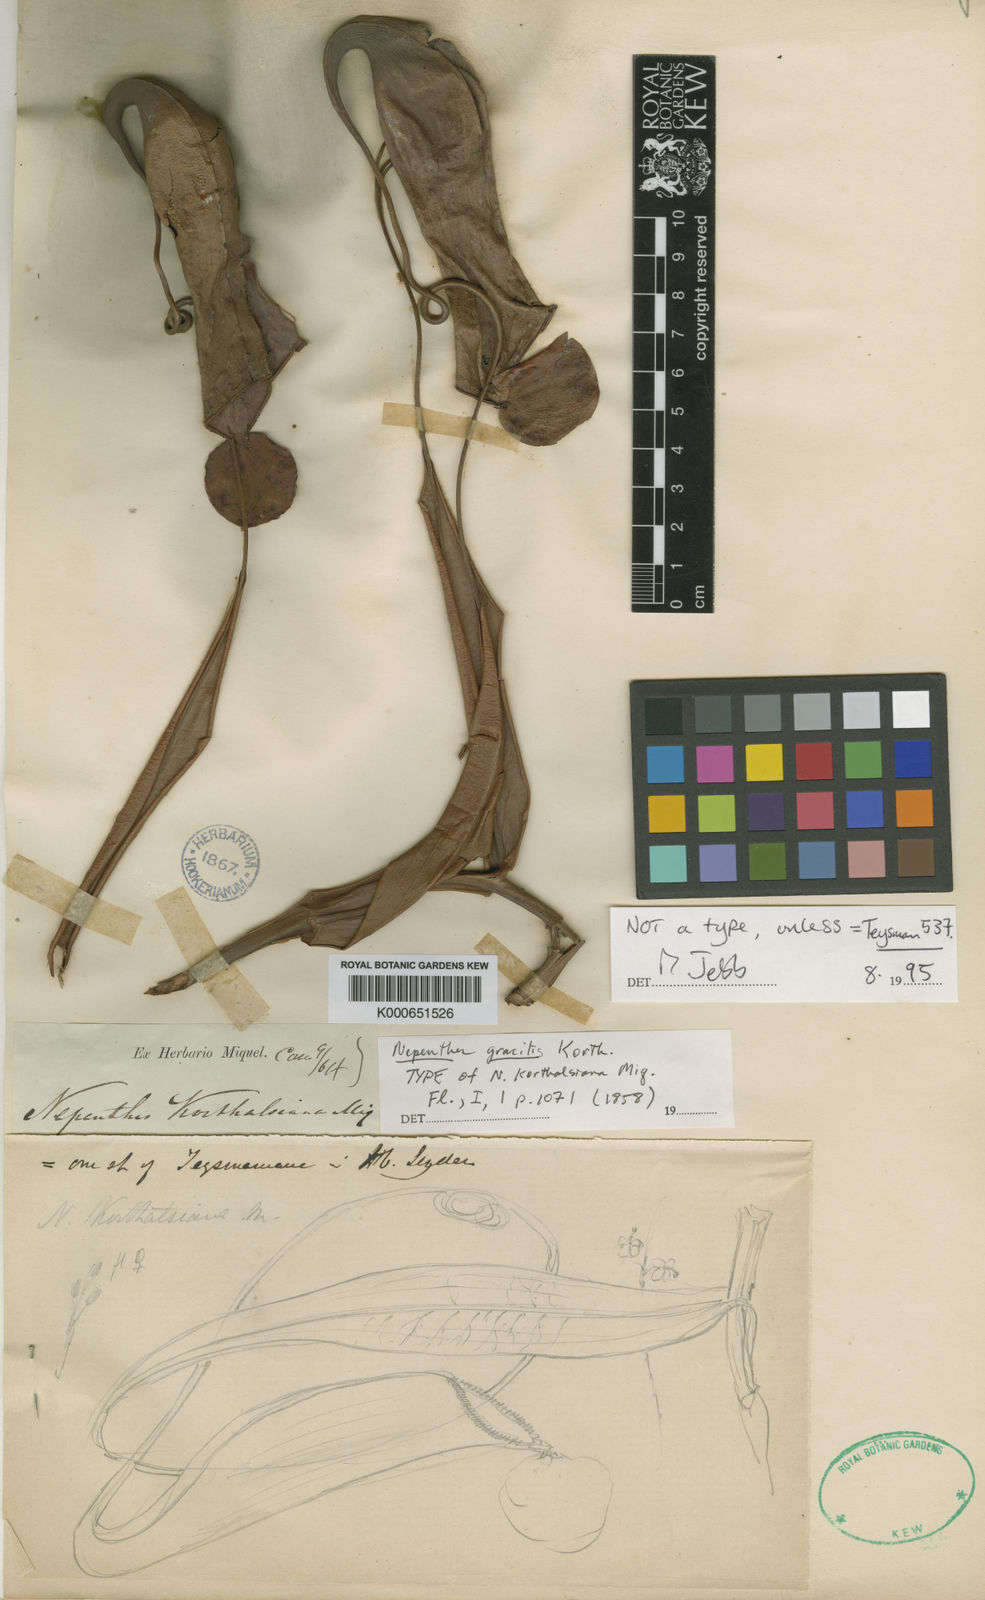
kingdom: Plantae
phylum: Tracheophyta
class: Magnoliopsida
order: Caryophyllales
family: Nepenthaceae
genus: Nepenthes
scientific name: Nepenthes gracilis
